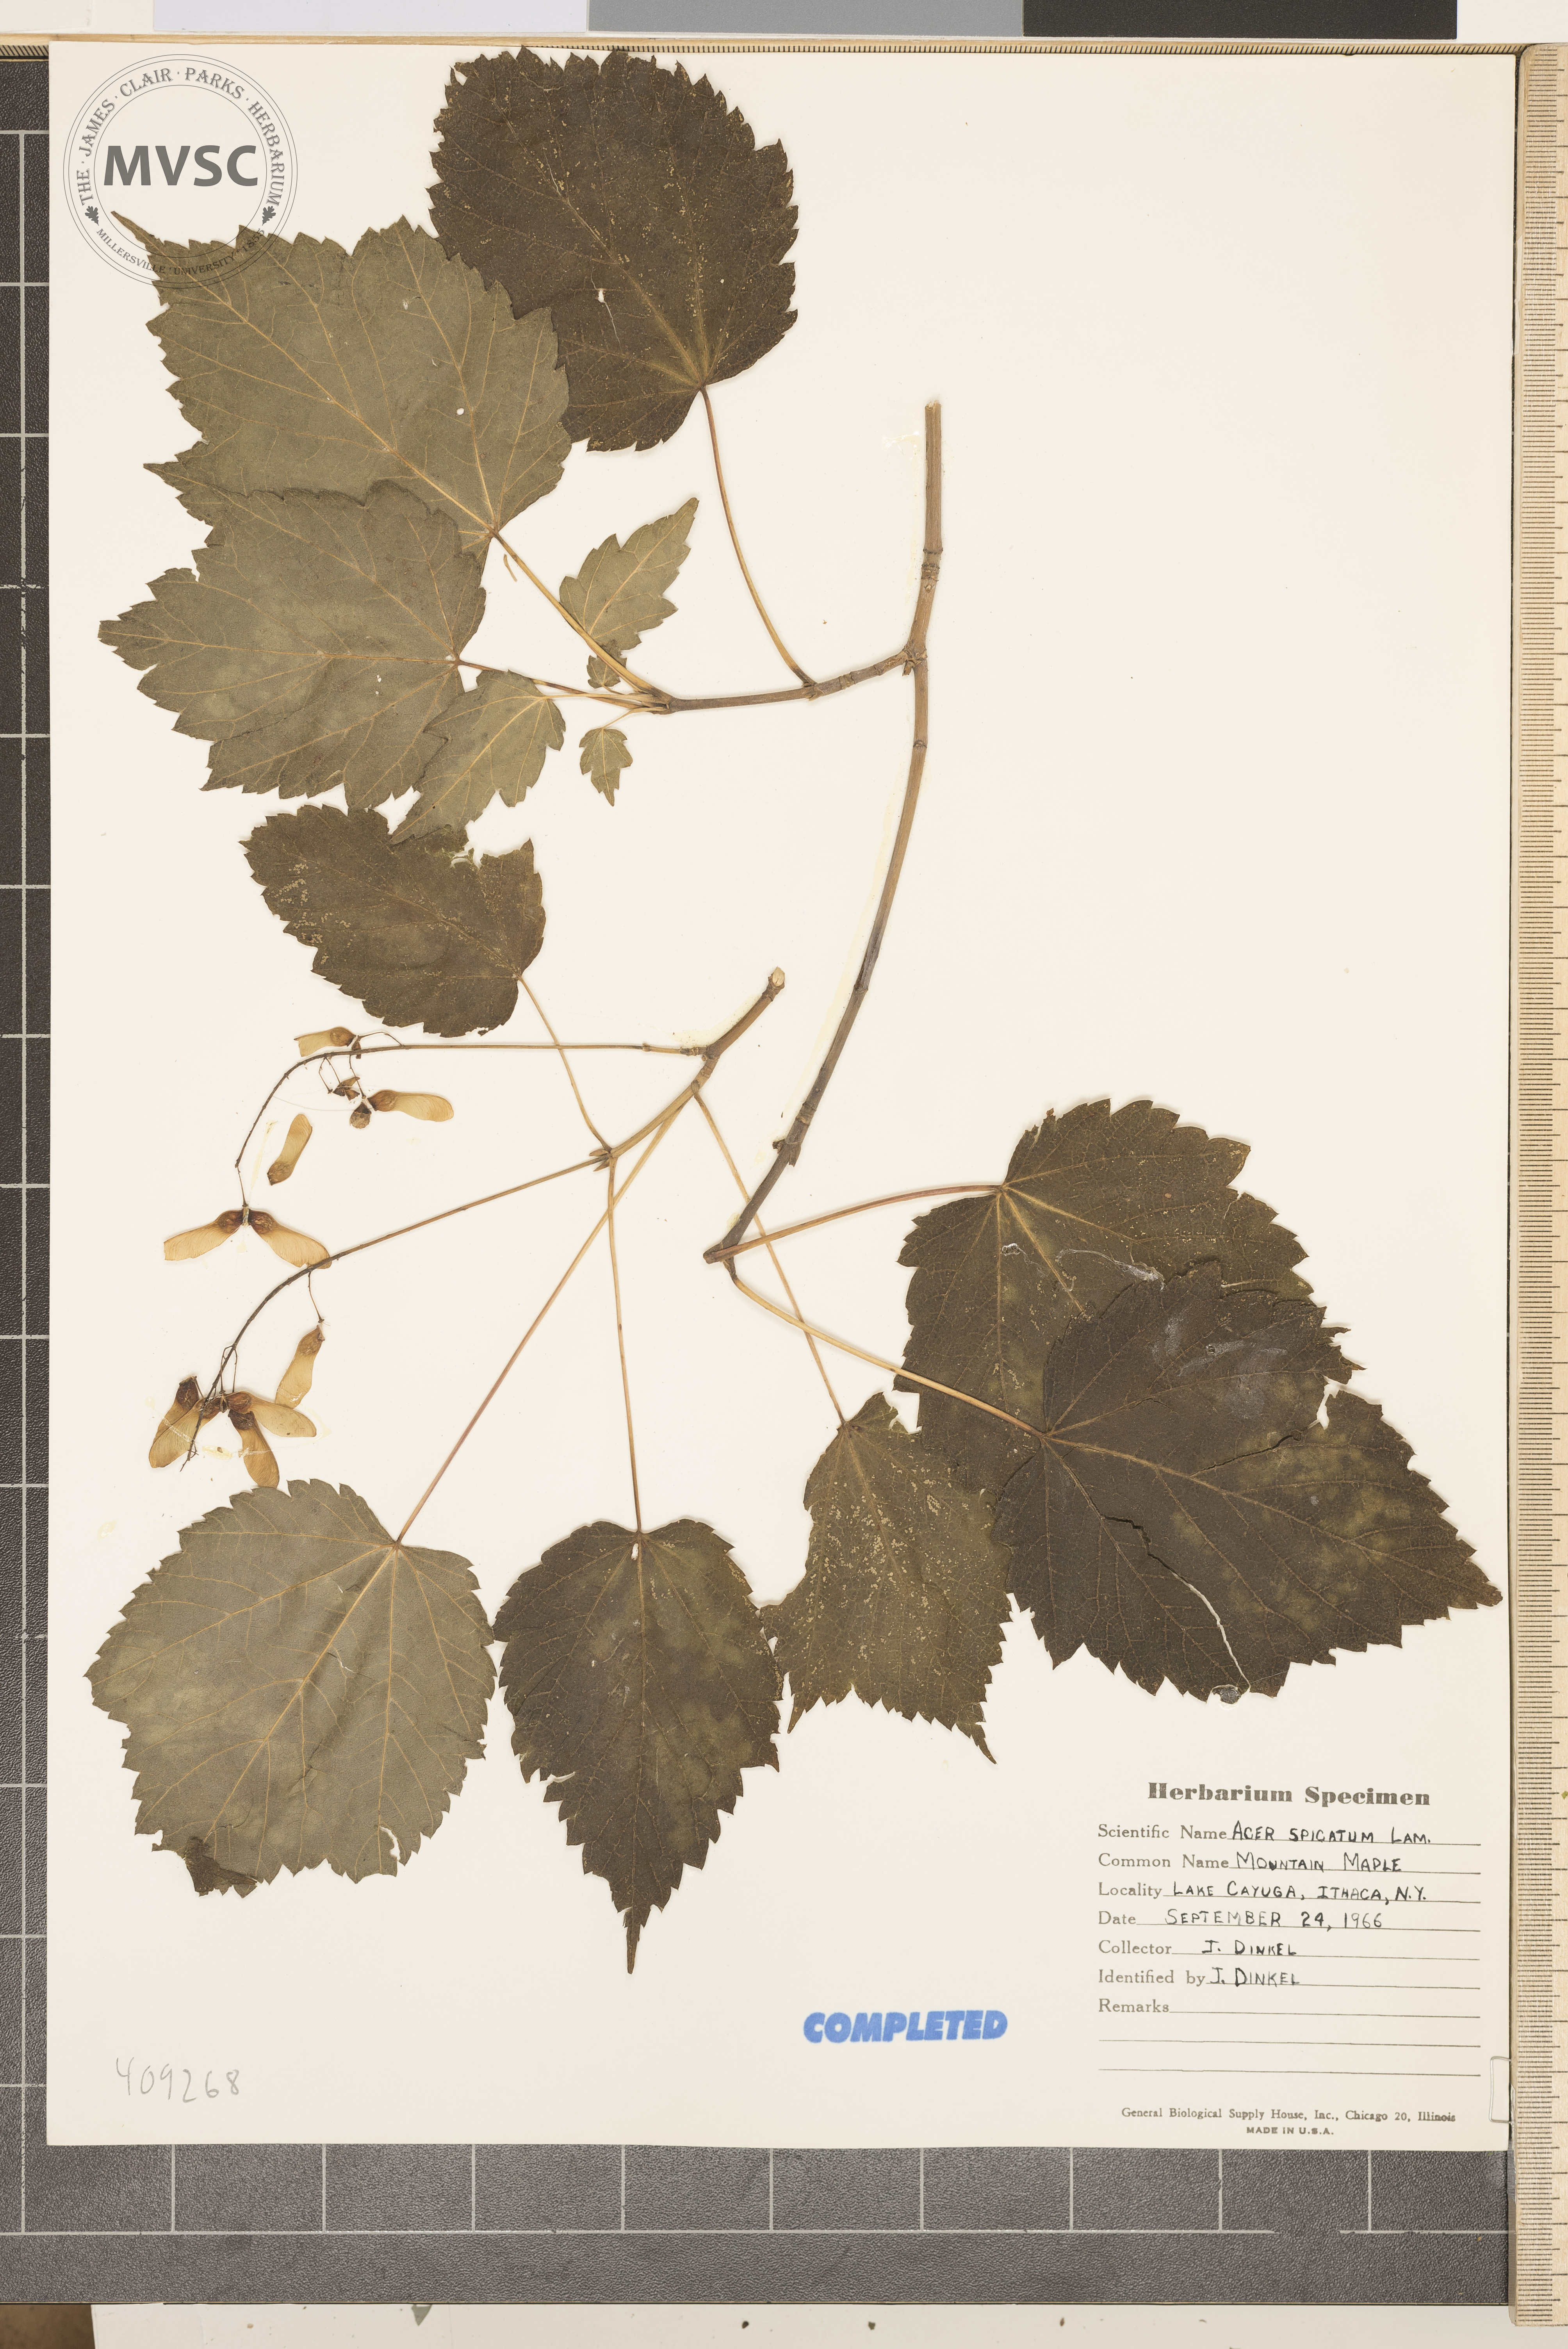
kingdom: Plantae
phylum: Tracheophyta
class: Magnoliopsida
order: Sapindales
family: Sapindaceae
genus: Acer
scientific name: Acer spicatum
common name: Mountain maple
